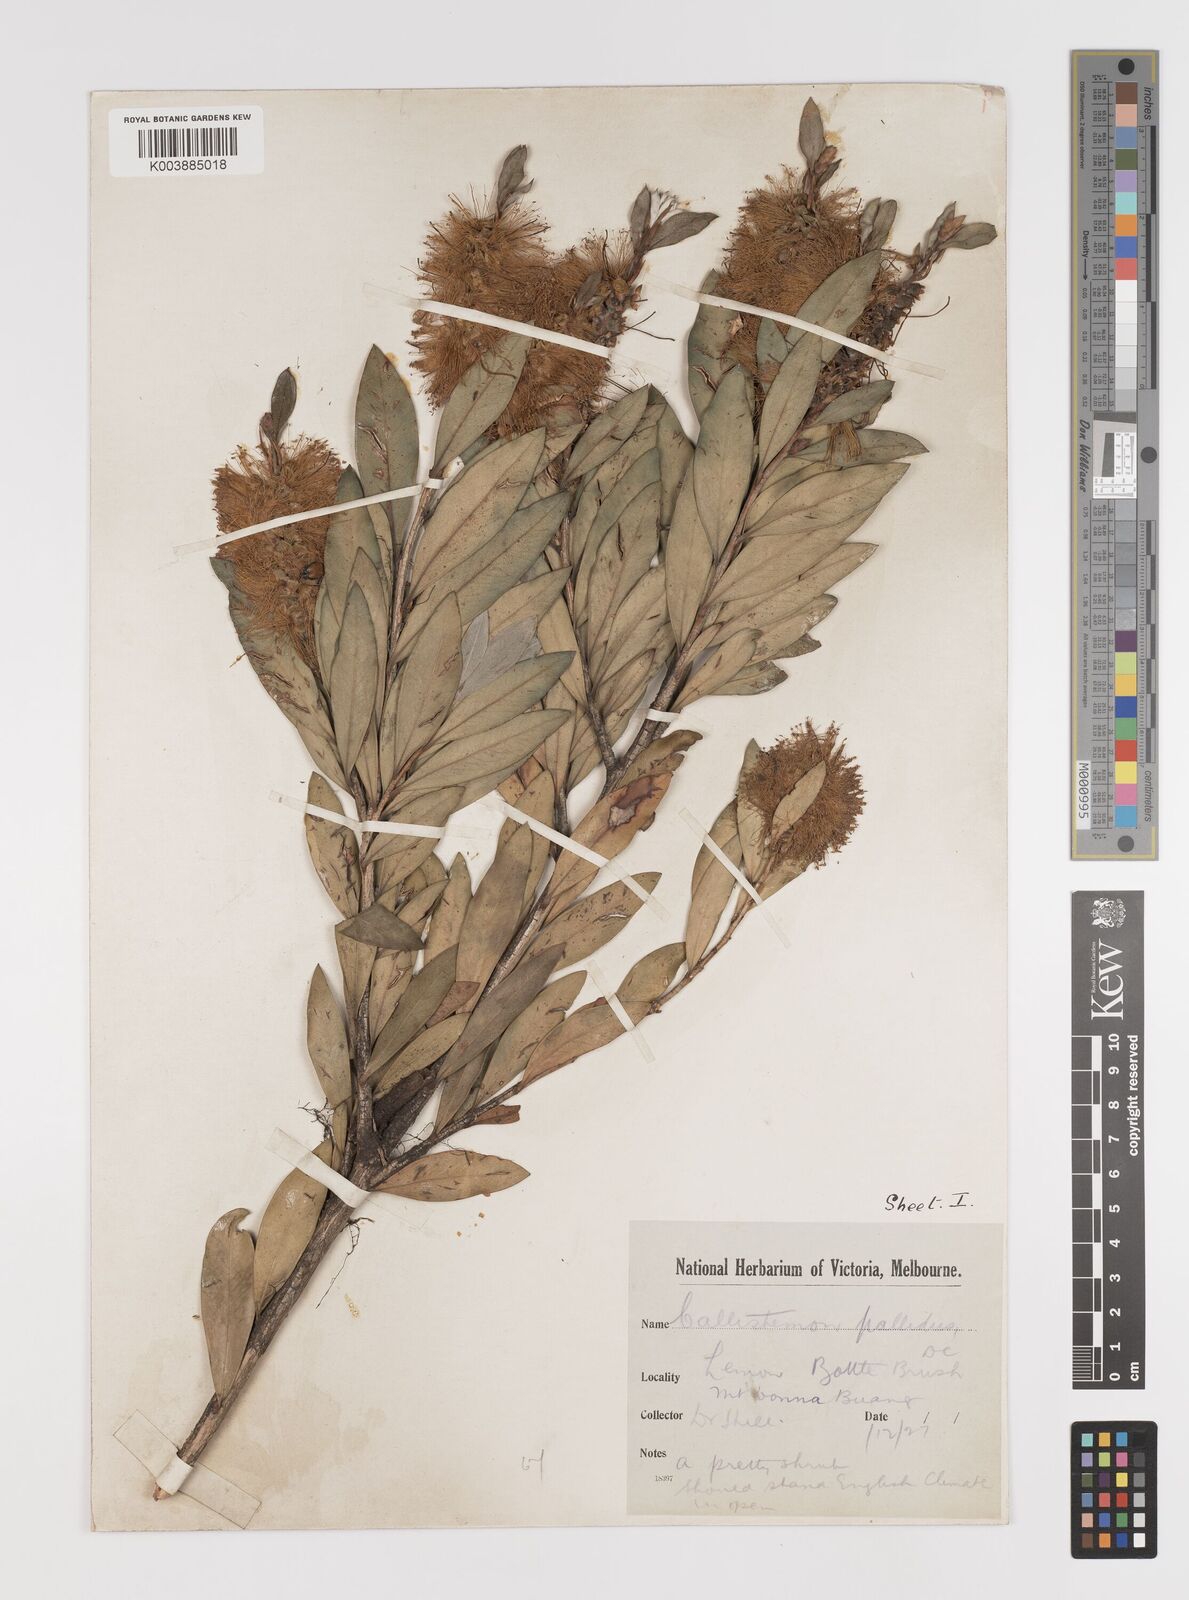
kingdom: Plantae
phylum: Tracheophyta
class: Magnoliopsida
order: Myrtales
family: Myrtaceae
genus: Melaleuca
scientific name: Melaleuca pallida
